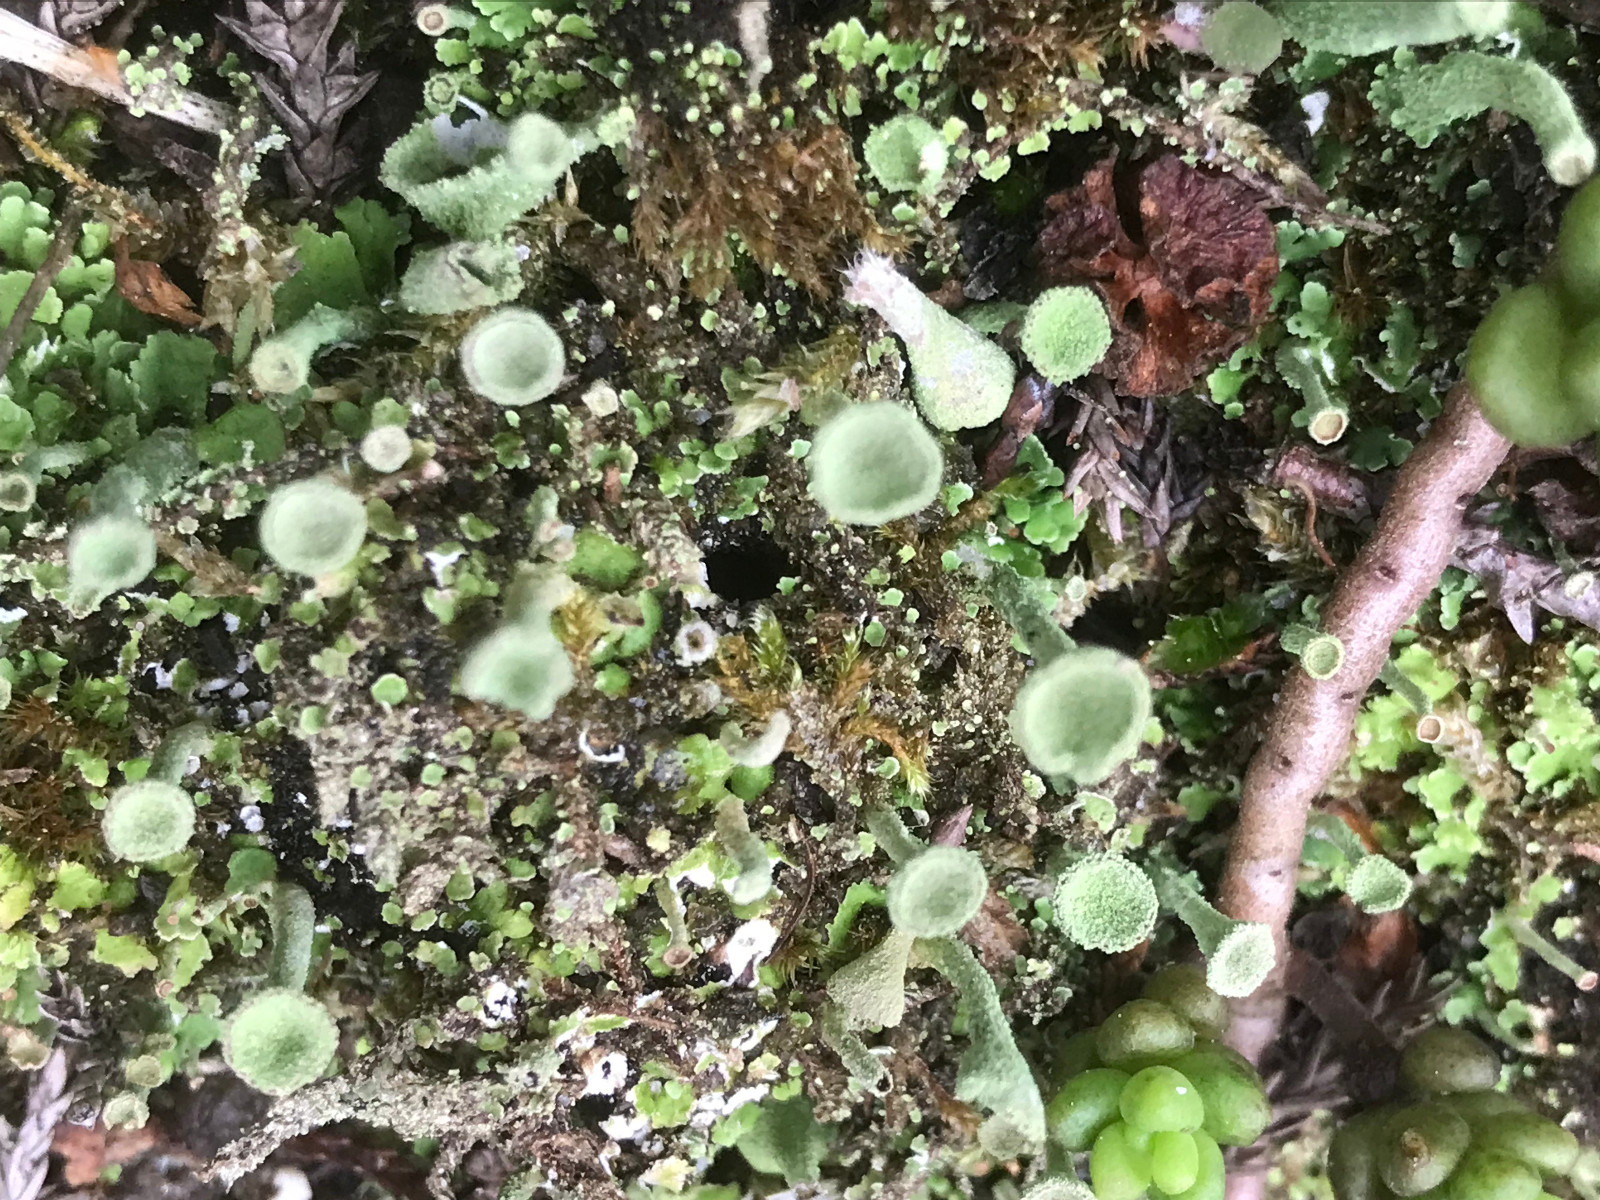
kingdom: Fungi
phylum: Ascomycota
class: Lecanoromycetes
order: Lecanorales
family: Cladoniaceae
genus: Cladonia
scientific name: Cladonia
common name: brungrøn bægerlav
